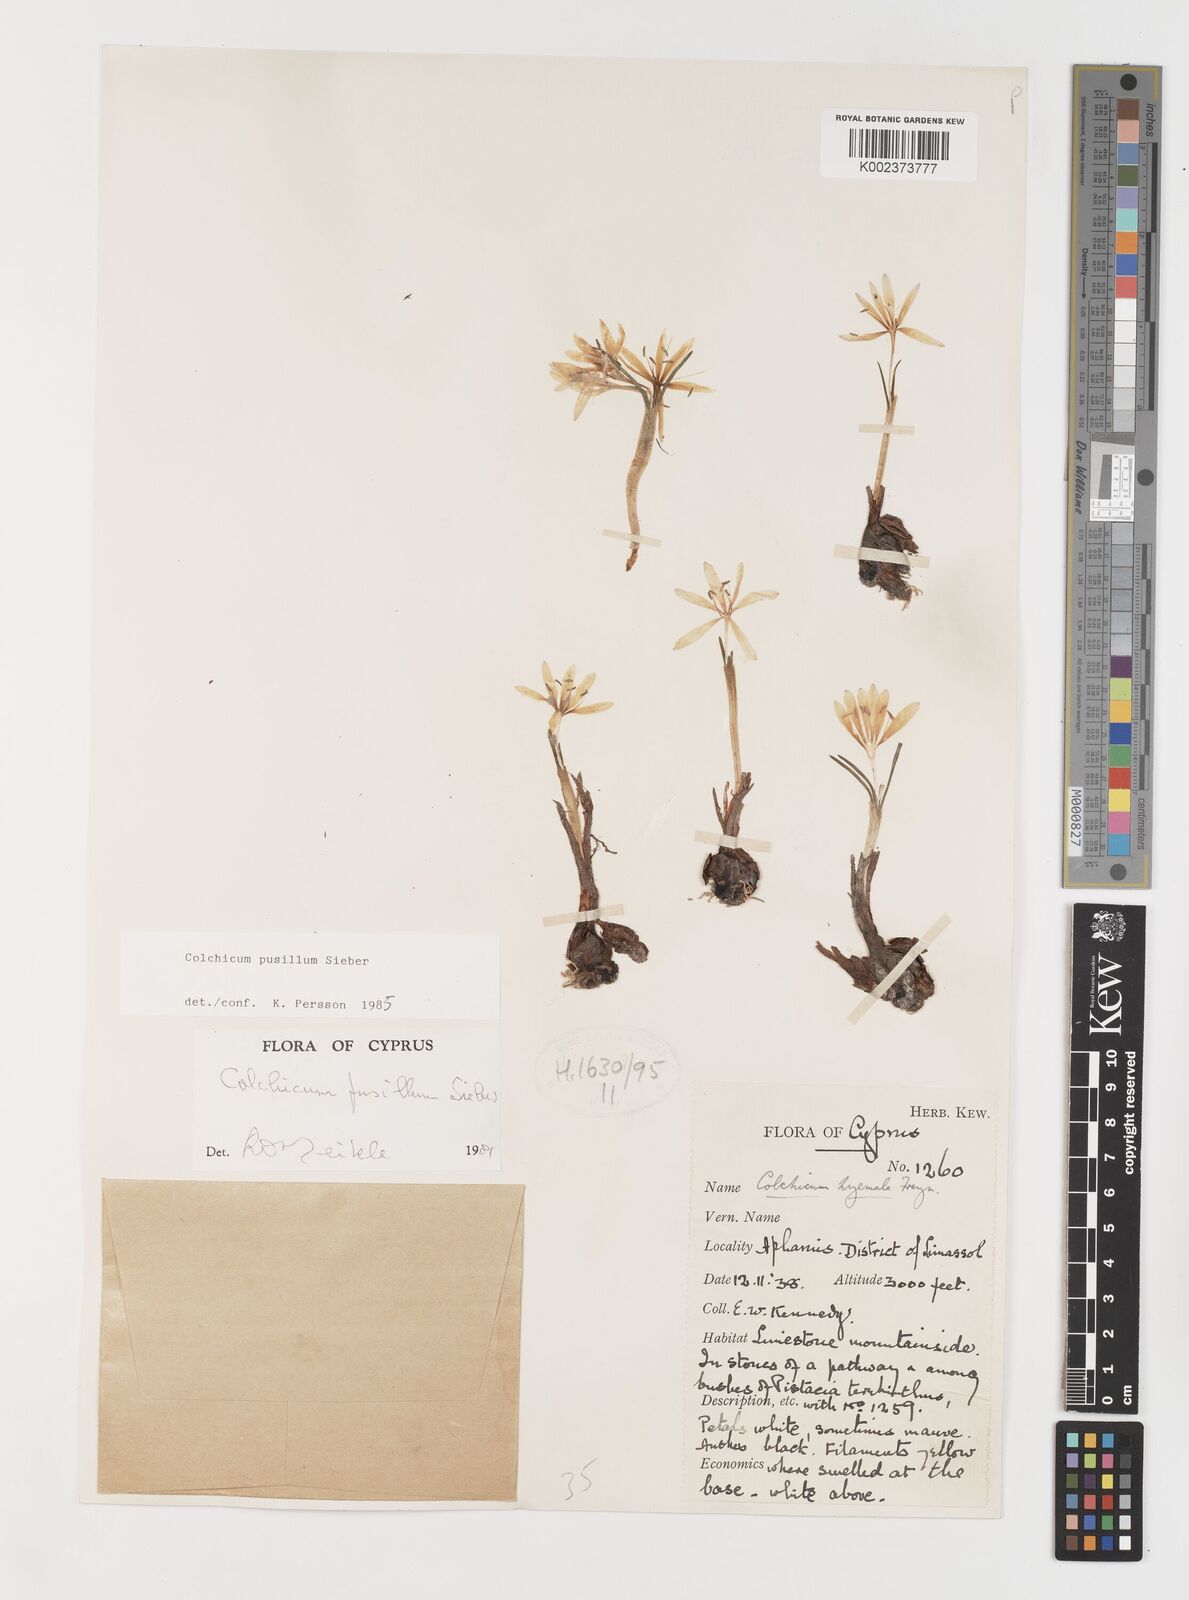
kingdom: Plantae
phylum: Tracheophyta
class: Liliopsida
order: Liliales
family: Colchicaceae
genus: Colchicum
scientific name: Colchicum pusillum
